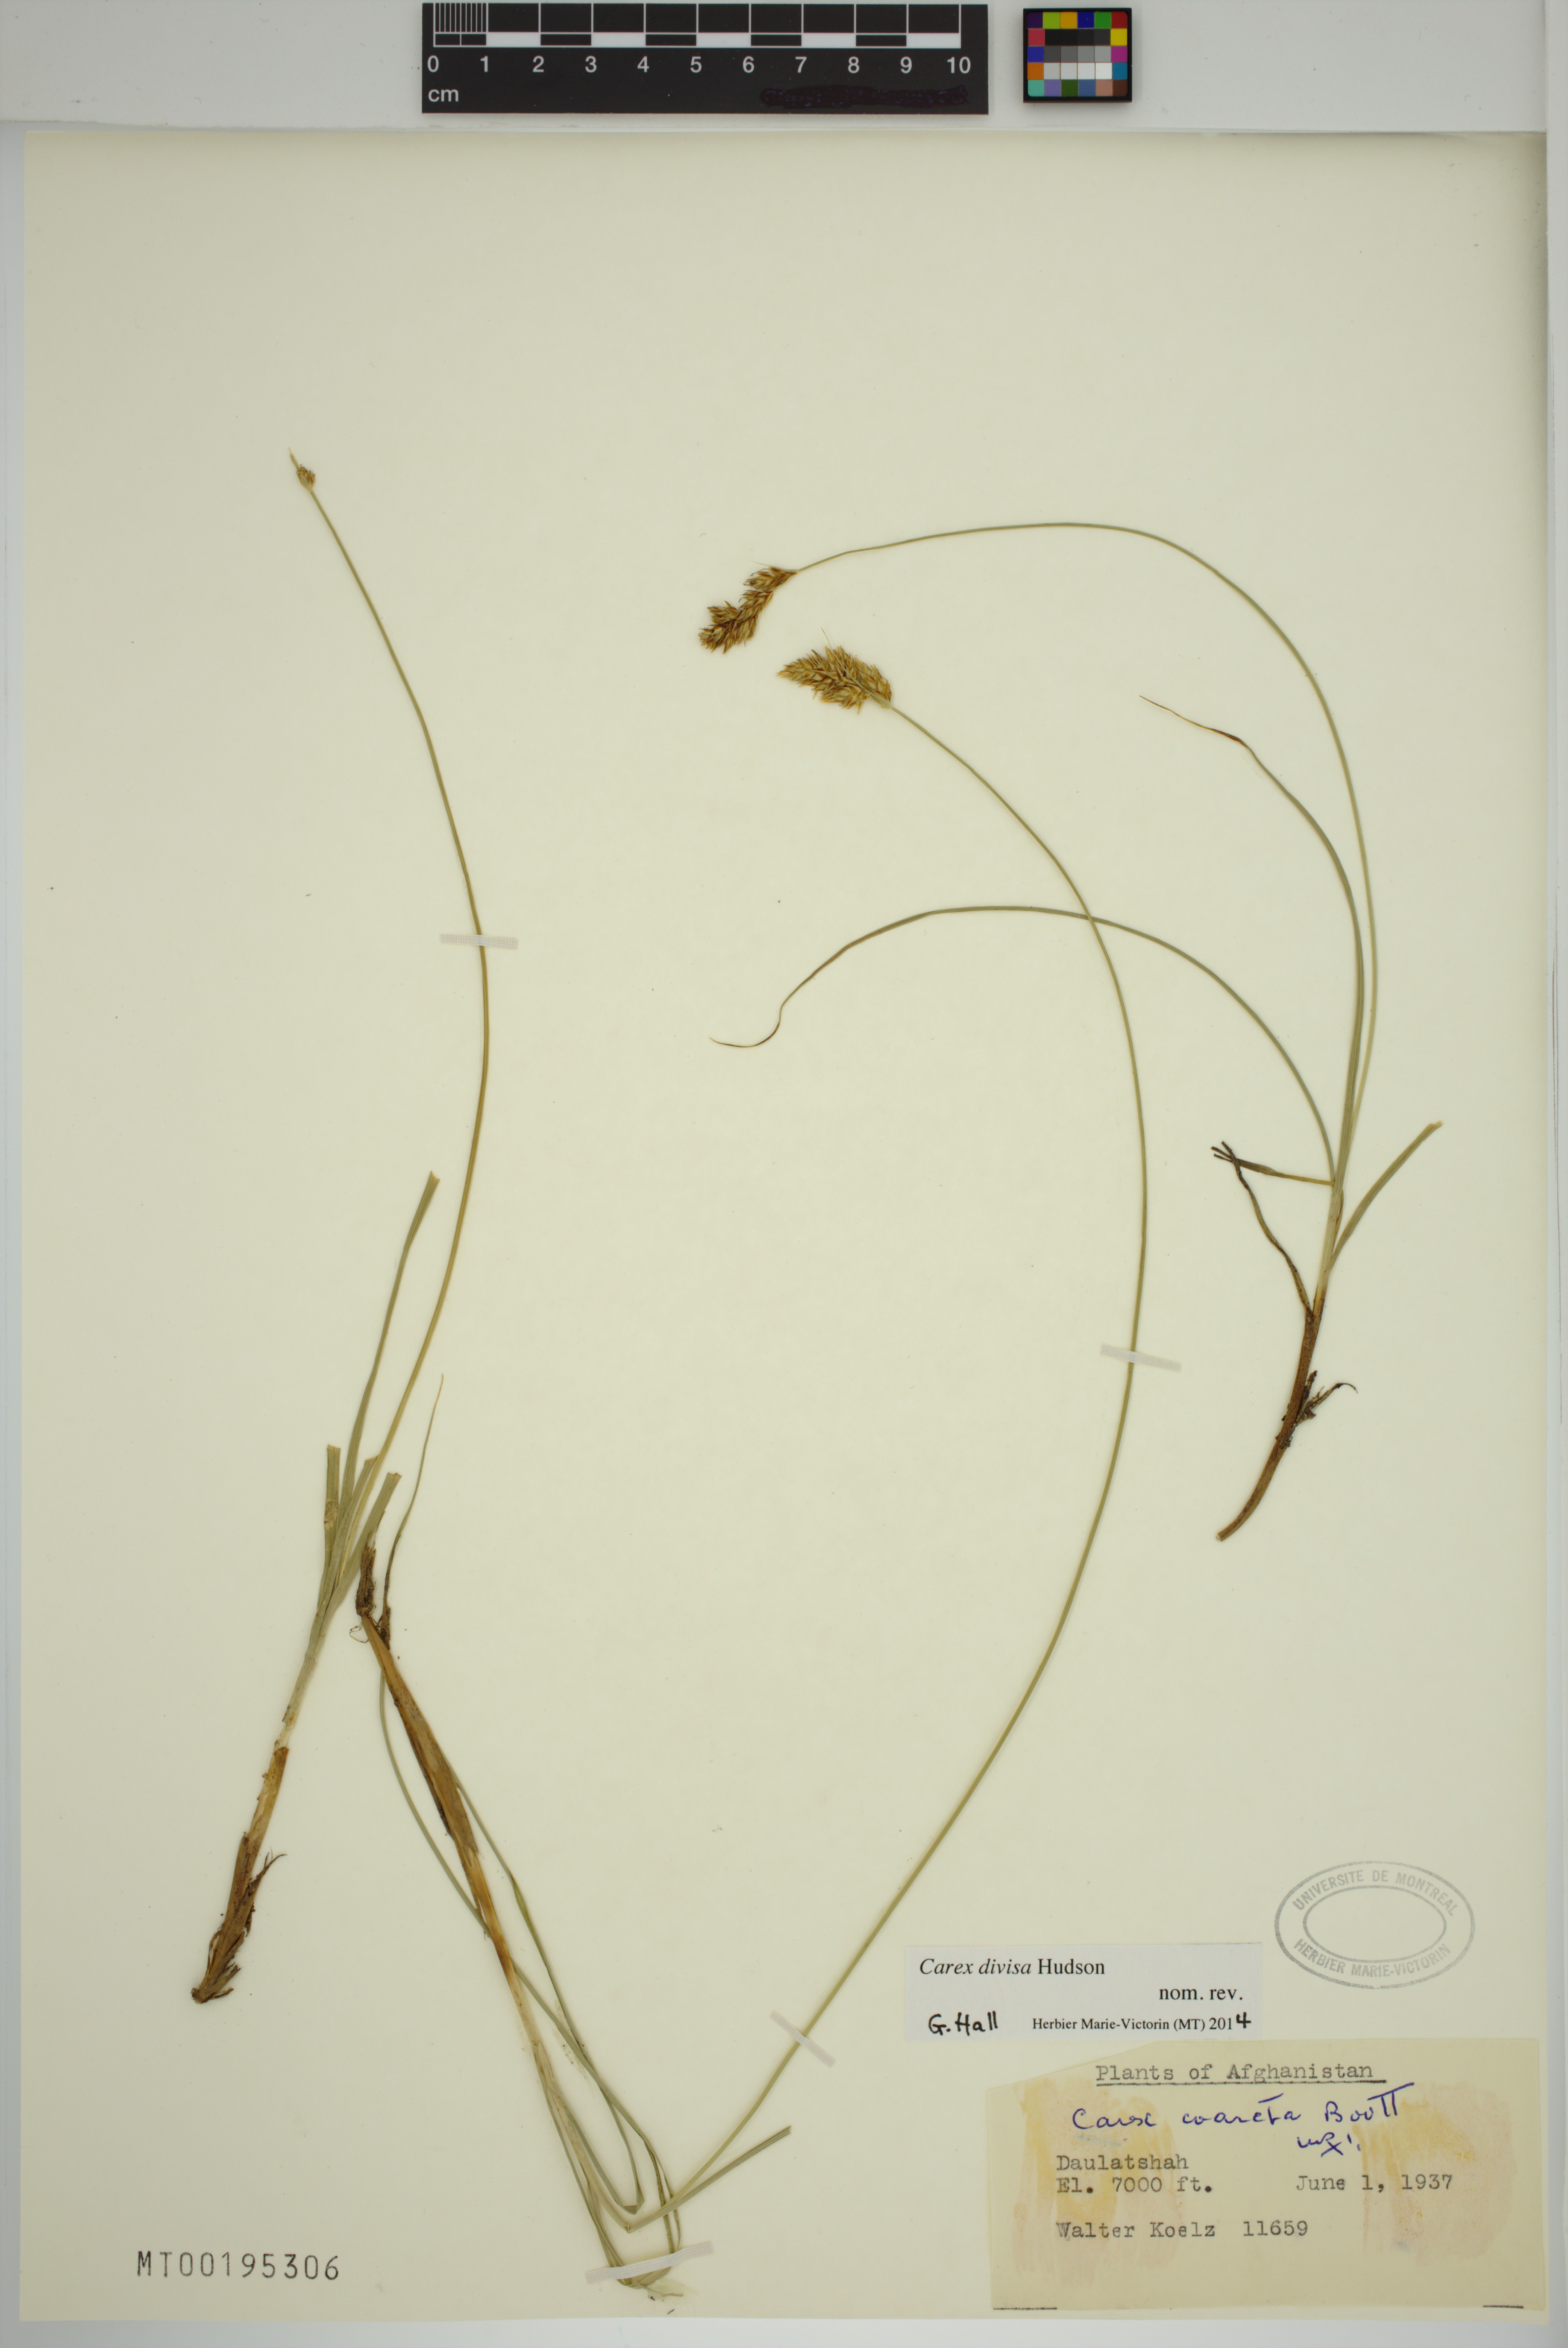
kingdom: Plantae
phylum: Tracheophyta
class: Liliopsida
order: Poales
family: Cyperaceae
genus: Carex
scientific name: Carex divisa
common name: Divided sedge
